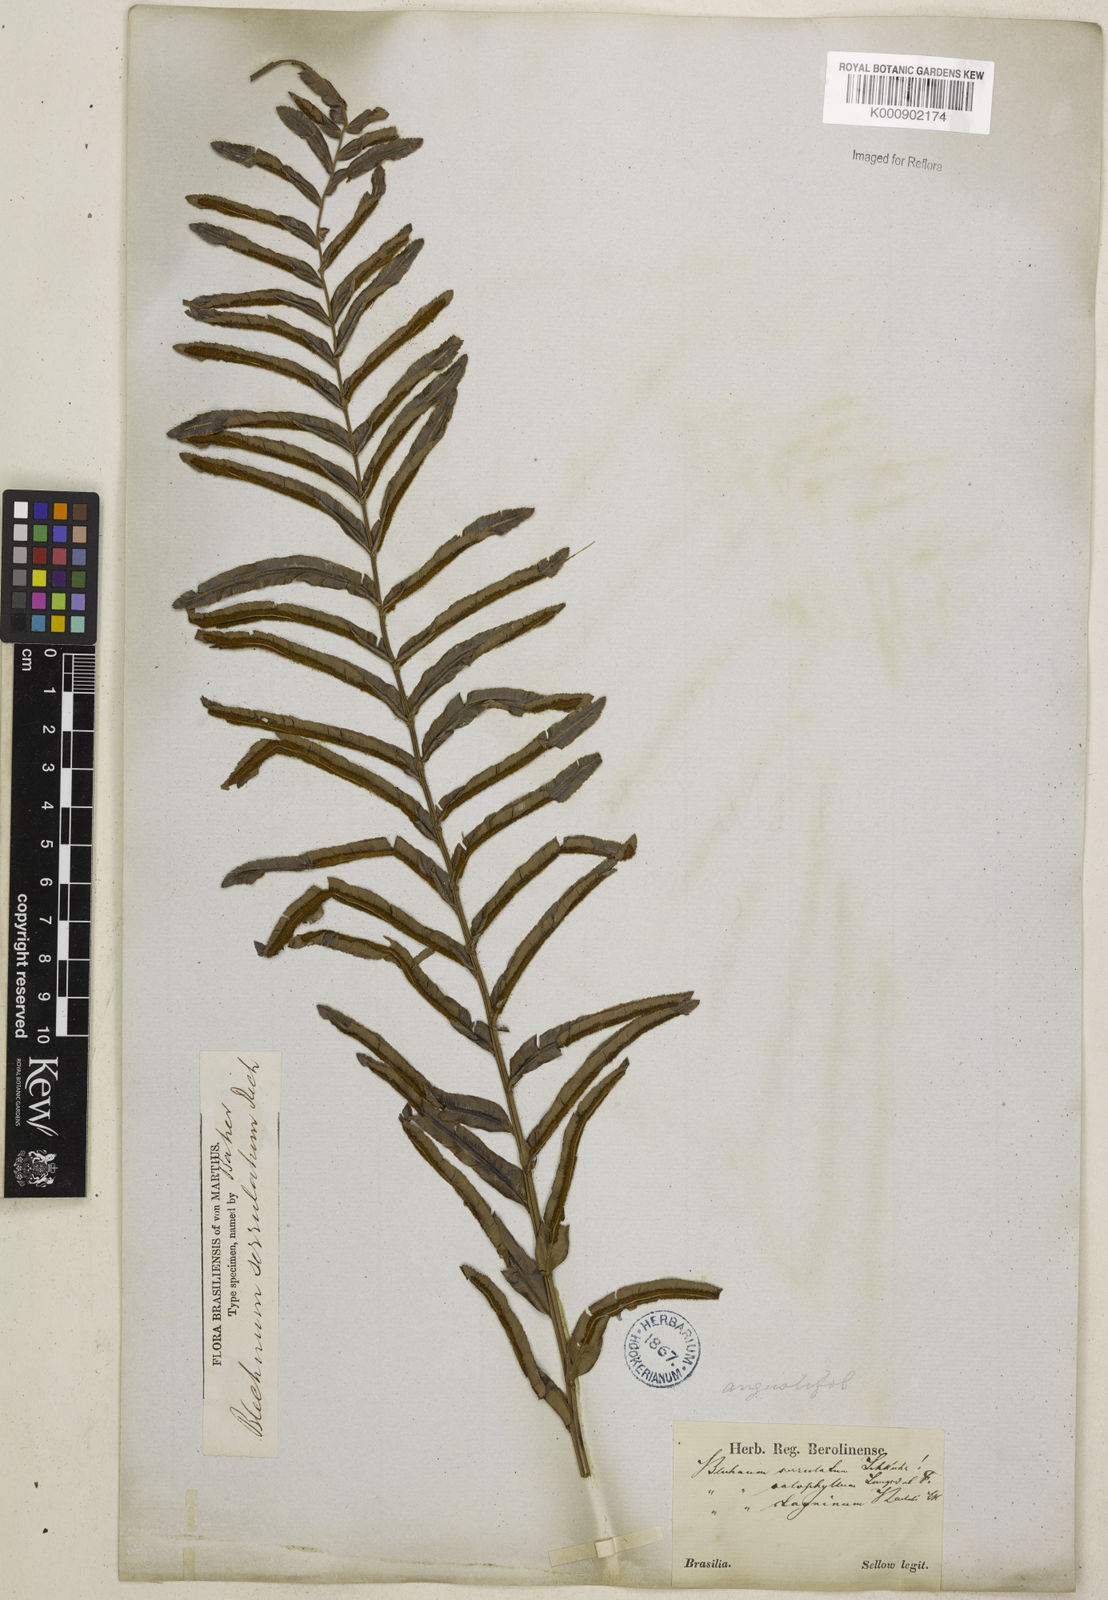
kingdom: Plantae
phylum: Tracheophyta
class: Polypodiopsida
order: Polypodiales
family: Blechnaceae
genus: Telmatoblechnum
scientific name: Telmatoblechnum serrulatum
